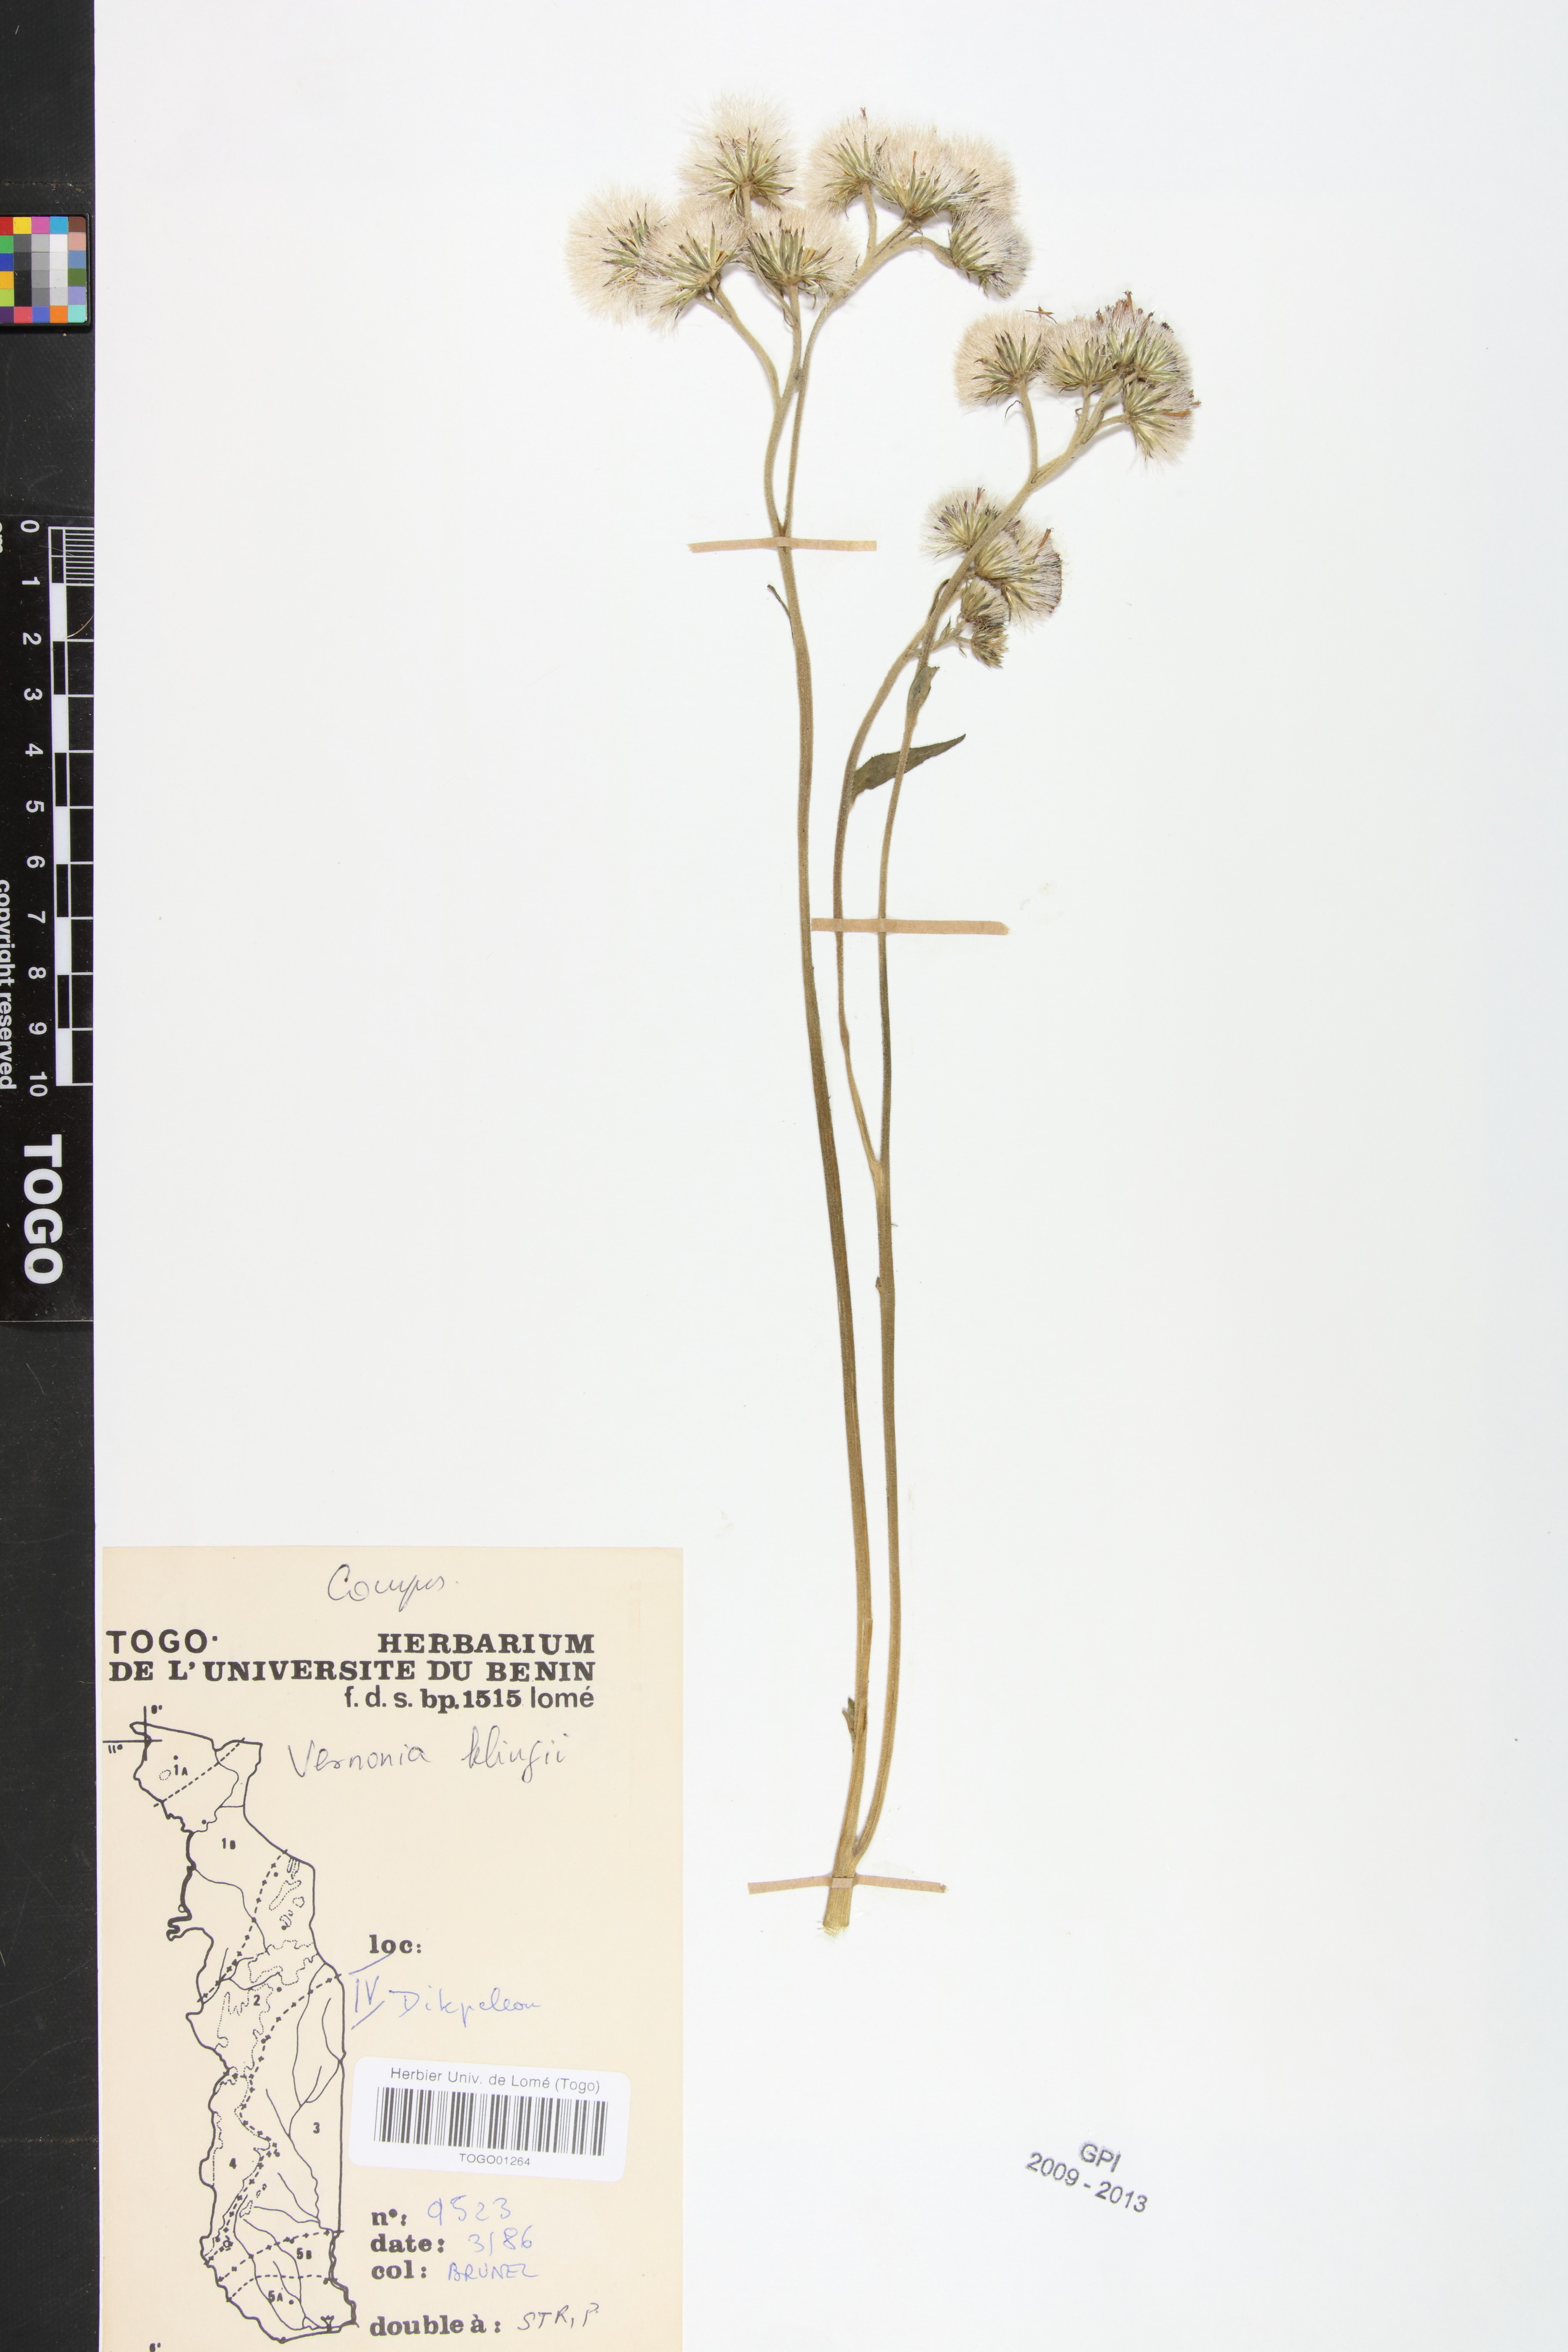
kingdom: Plantae
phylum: Tracheophyta
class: Magnoliopsida
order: Asterales
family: Asteraceae
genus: Vernoniastrum
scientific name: Vernoniastrum klingii
